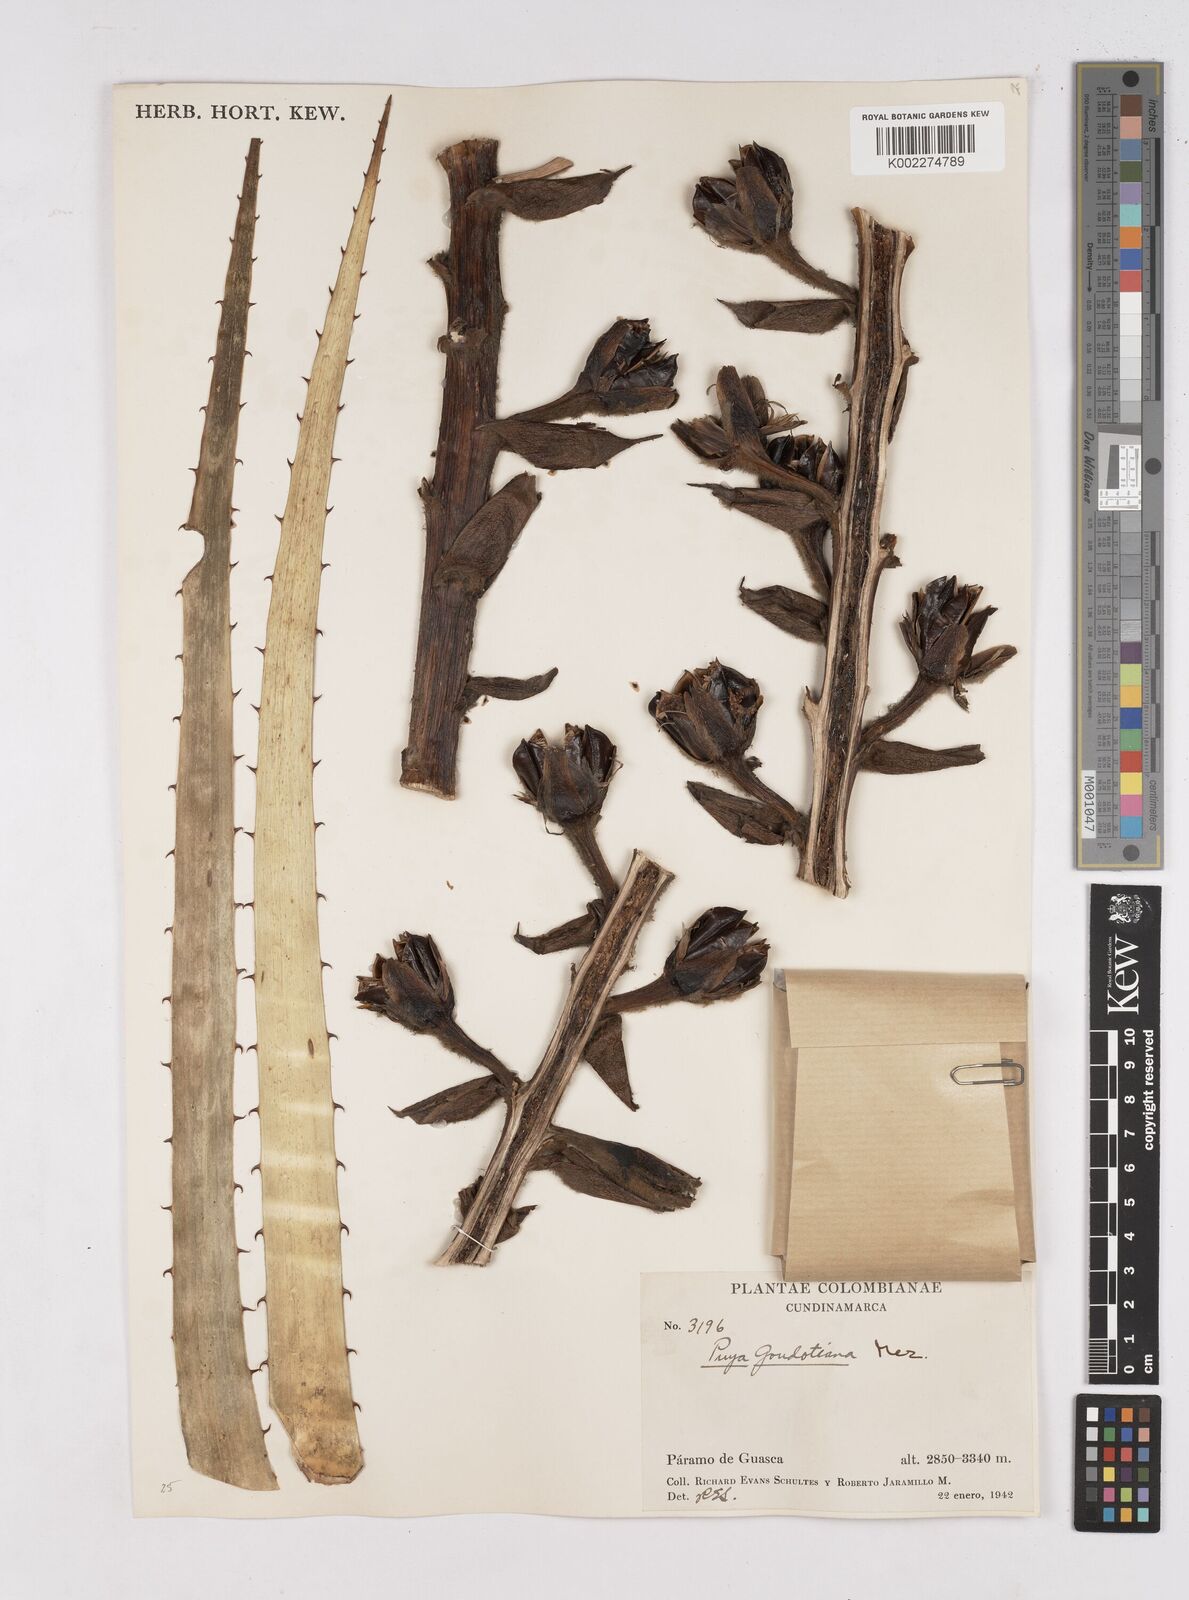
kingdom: Plantae
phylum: Tracheophyta
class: Liliopsida
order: Poales
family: Bromeliaceae
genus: Puya
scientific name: Puya goudotiana
